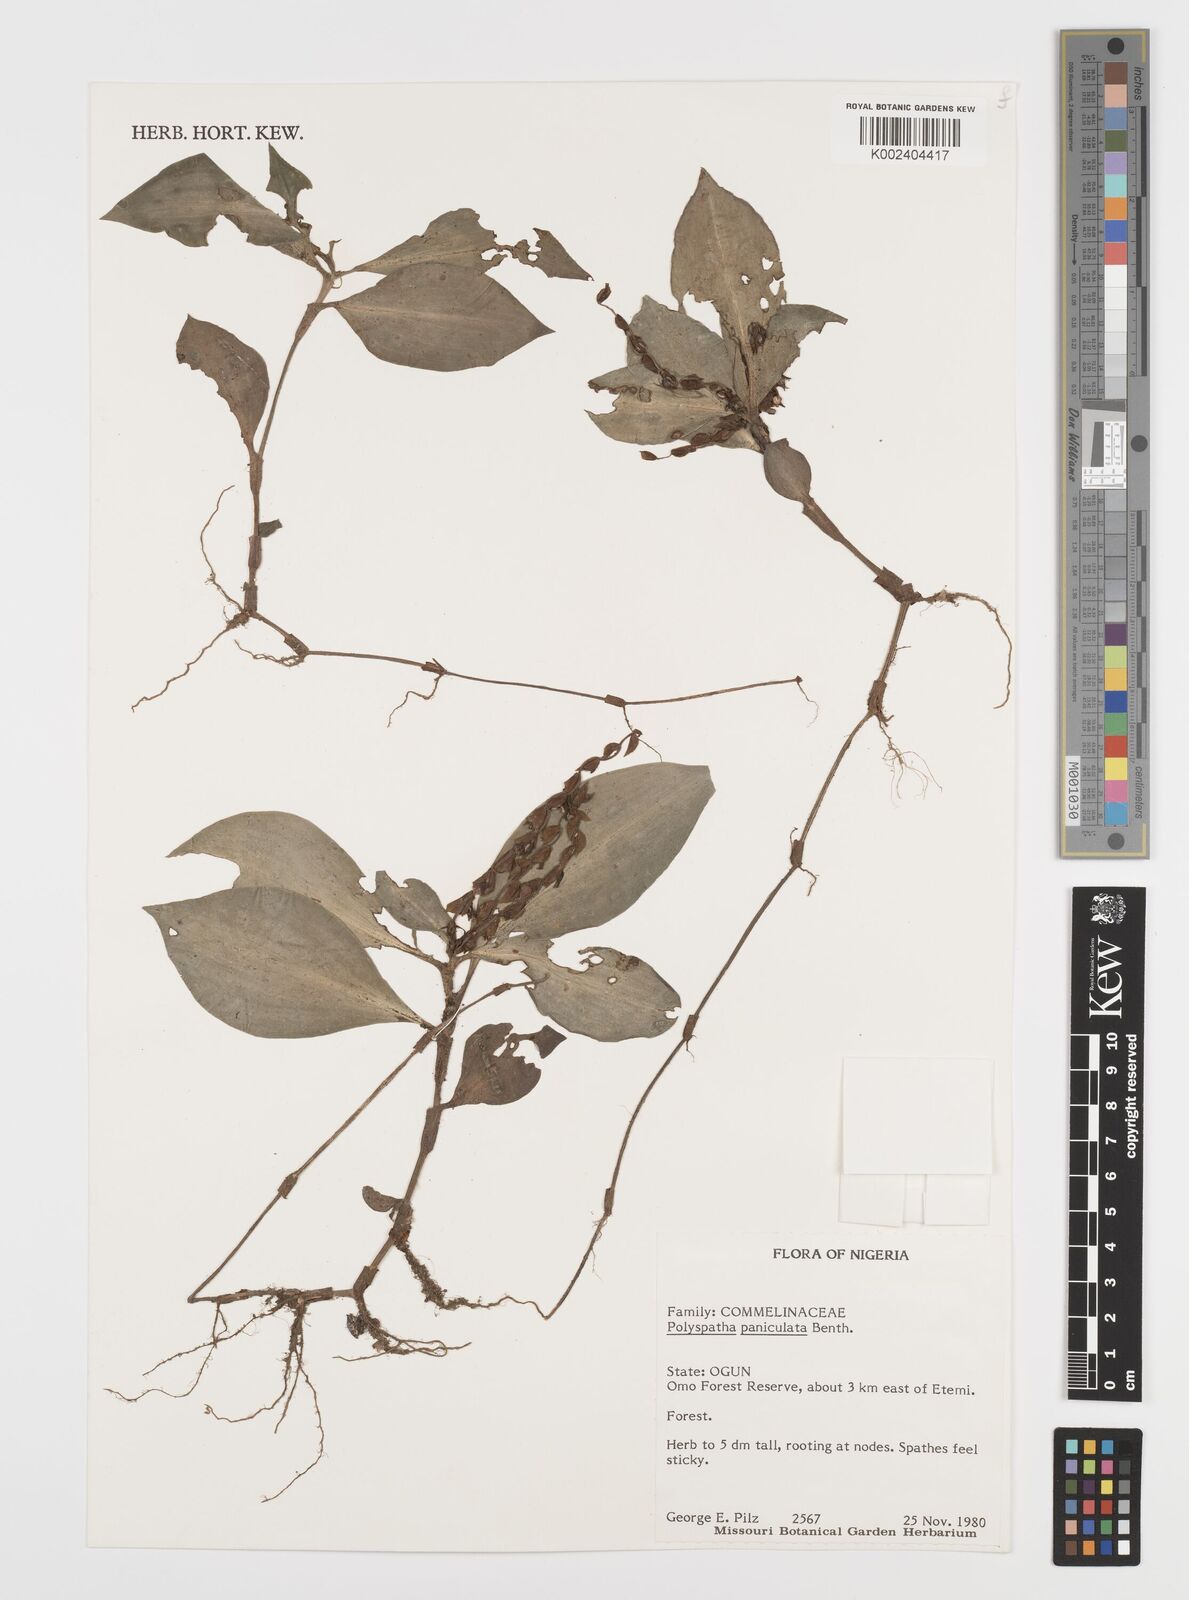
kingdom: Plantae
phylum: Tracheophyta
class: Liliopsida
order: Commelinales
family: Commelinaceae
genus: Polyspatha
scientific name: Polyspatha paniculata
